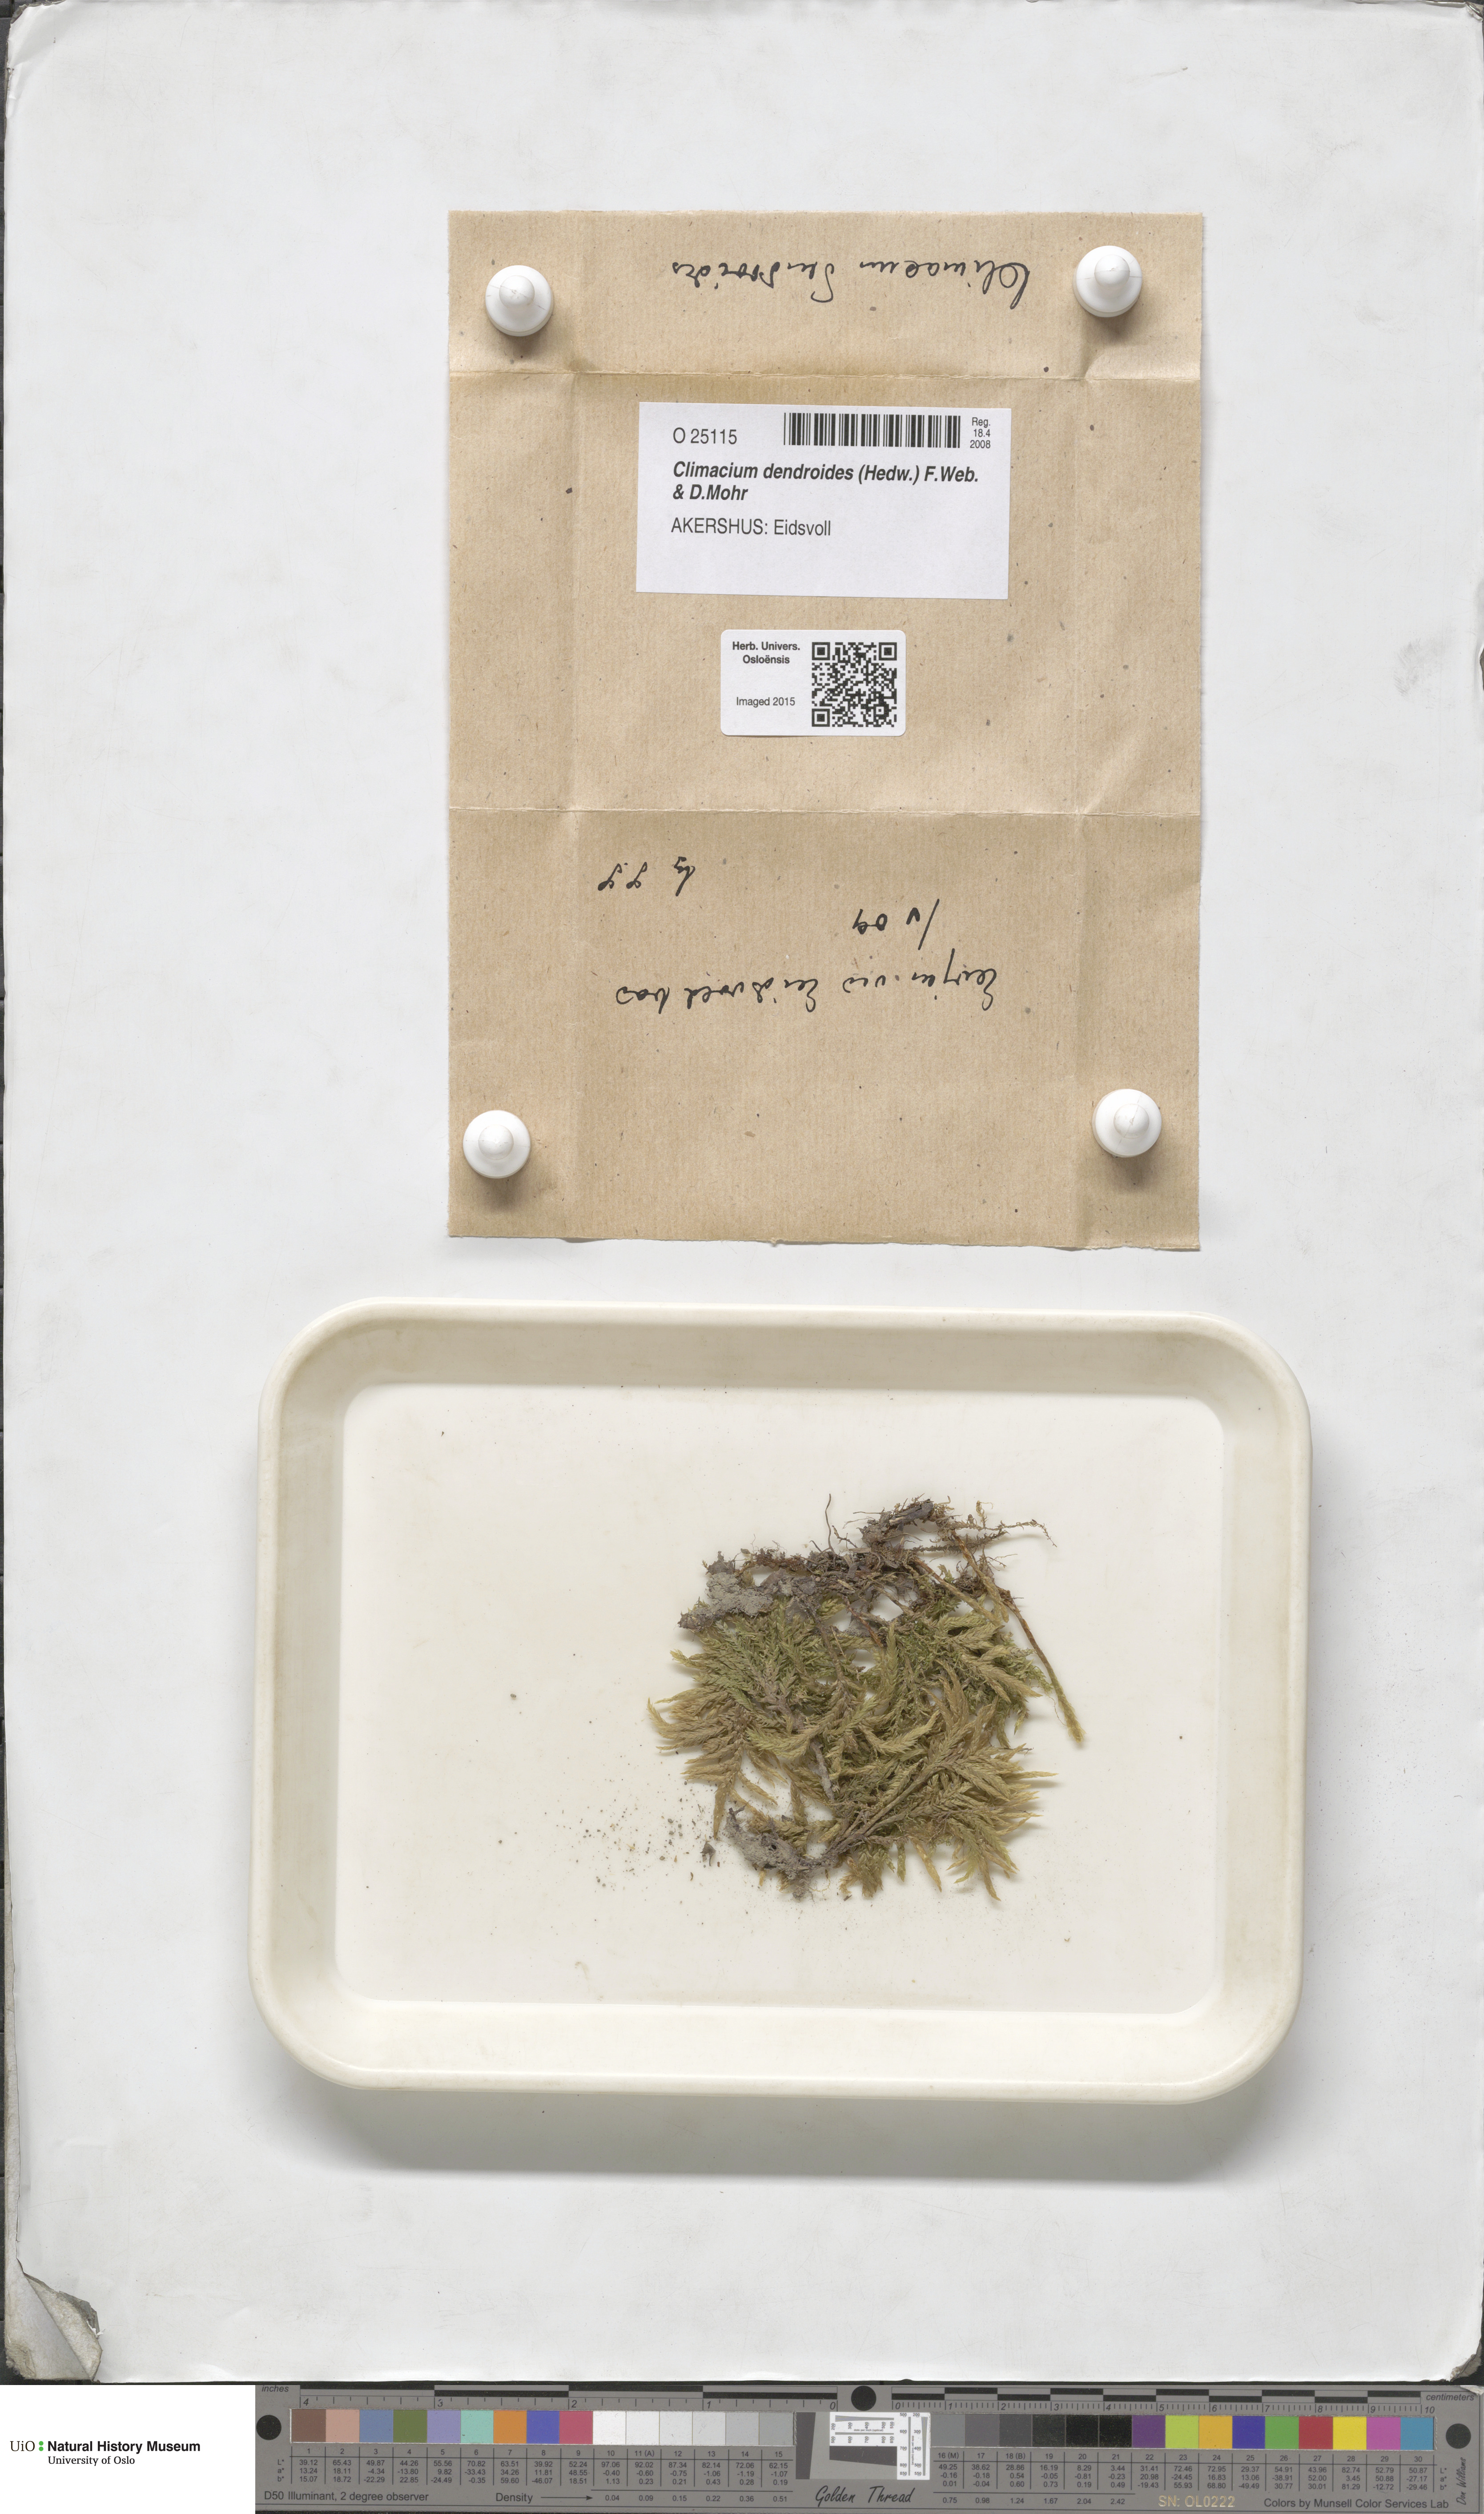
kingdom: Plantae
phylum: Bryophyta
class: Bryopsida
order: Hypnales
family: Climaciaceae
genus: Climacium
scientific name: Climacium dendroides
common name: Northern tree moss
